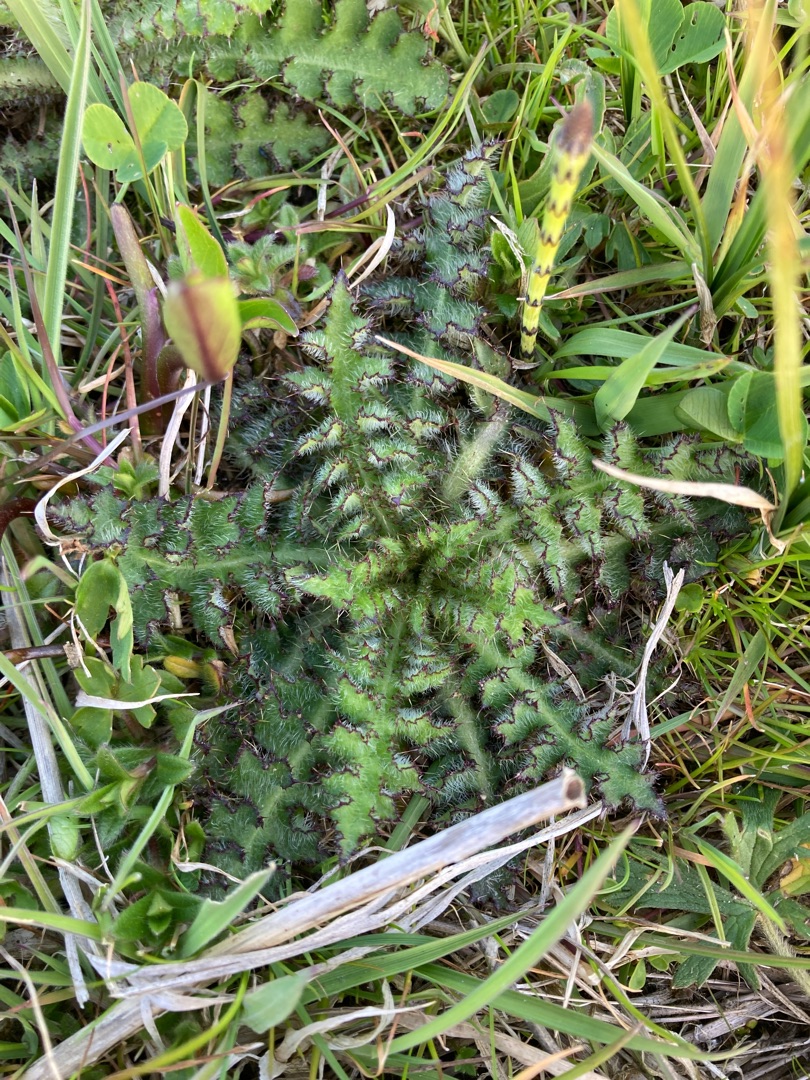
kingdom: Plantae
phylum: Tracheophyta
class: Magnoliopsida
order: Asterales
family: Asteraceae
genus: Cirsium
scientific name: Cirsium palustre
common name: Kær-tidsel
